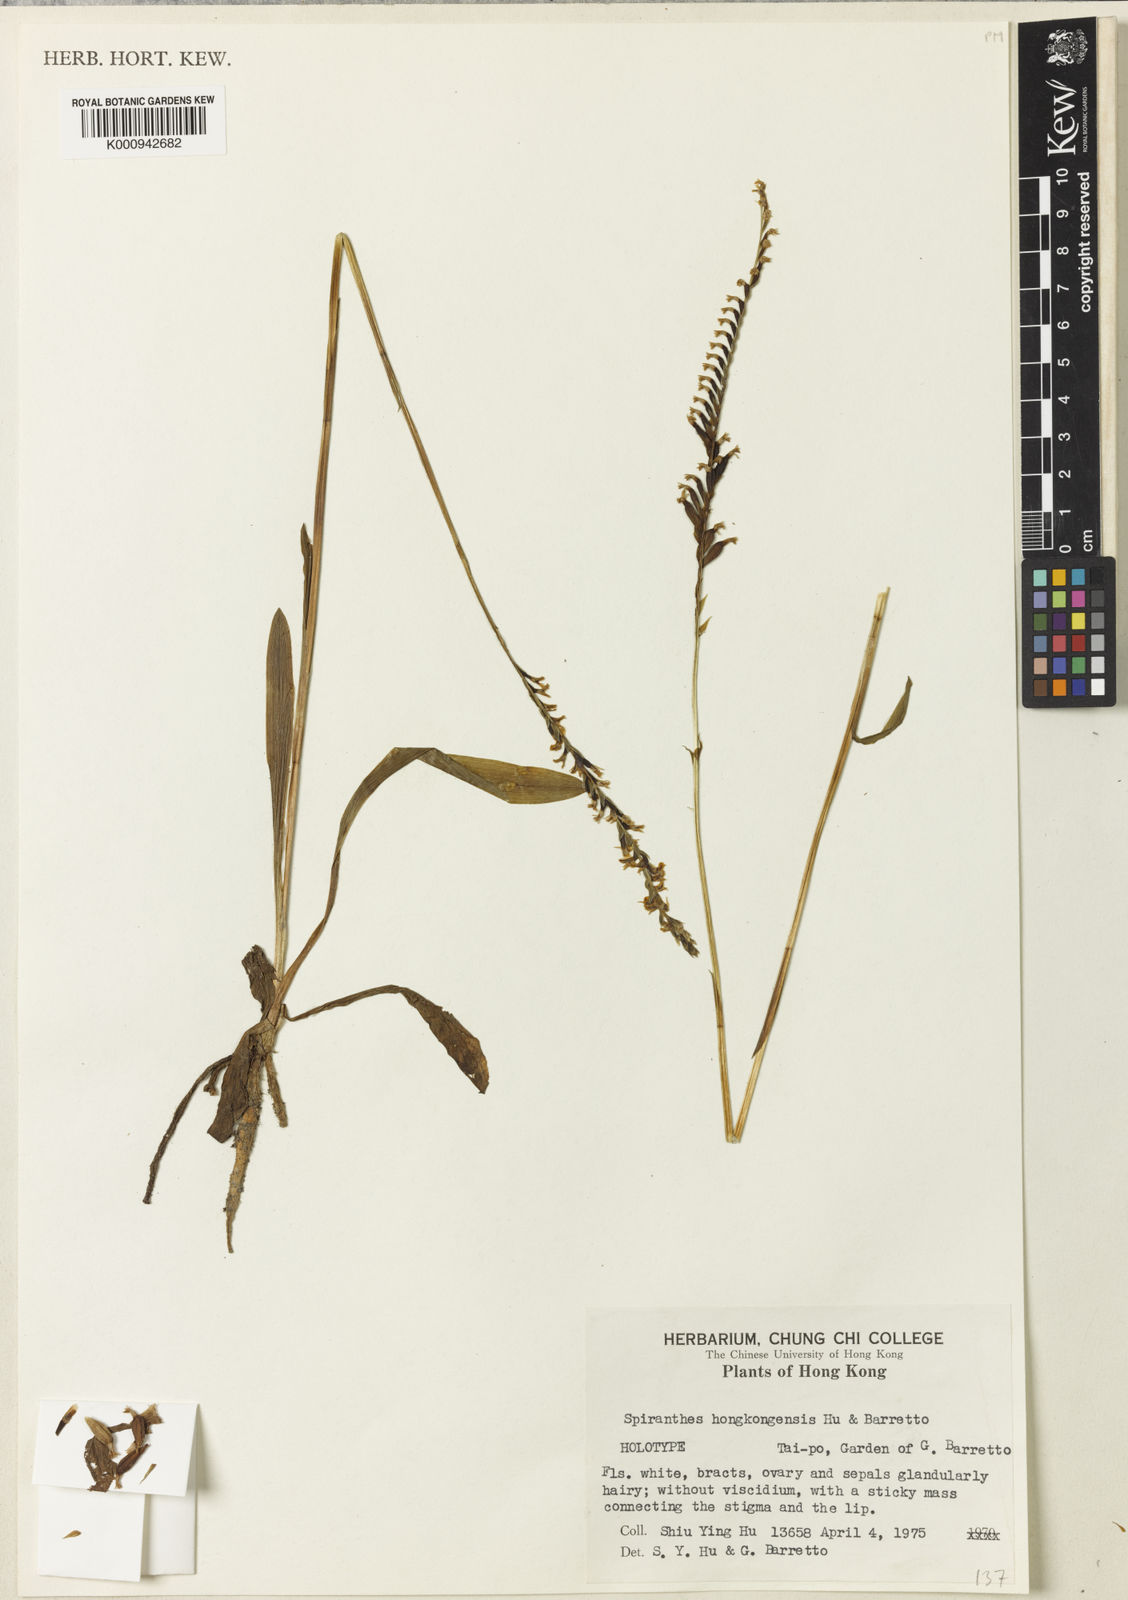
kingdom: Plantae
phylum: Tracheophyta
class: Liliopsida
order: Asparagales
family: Orchidaceae
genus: Spiranthes
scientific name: Spiranthes hongkongensis
